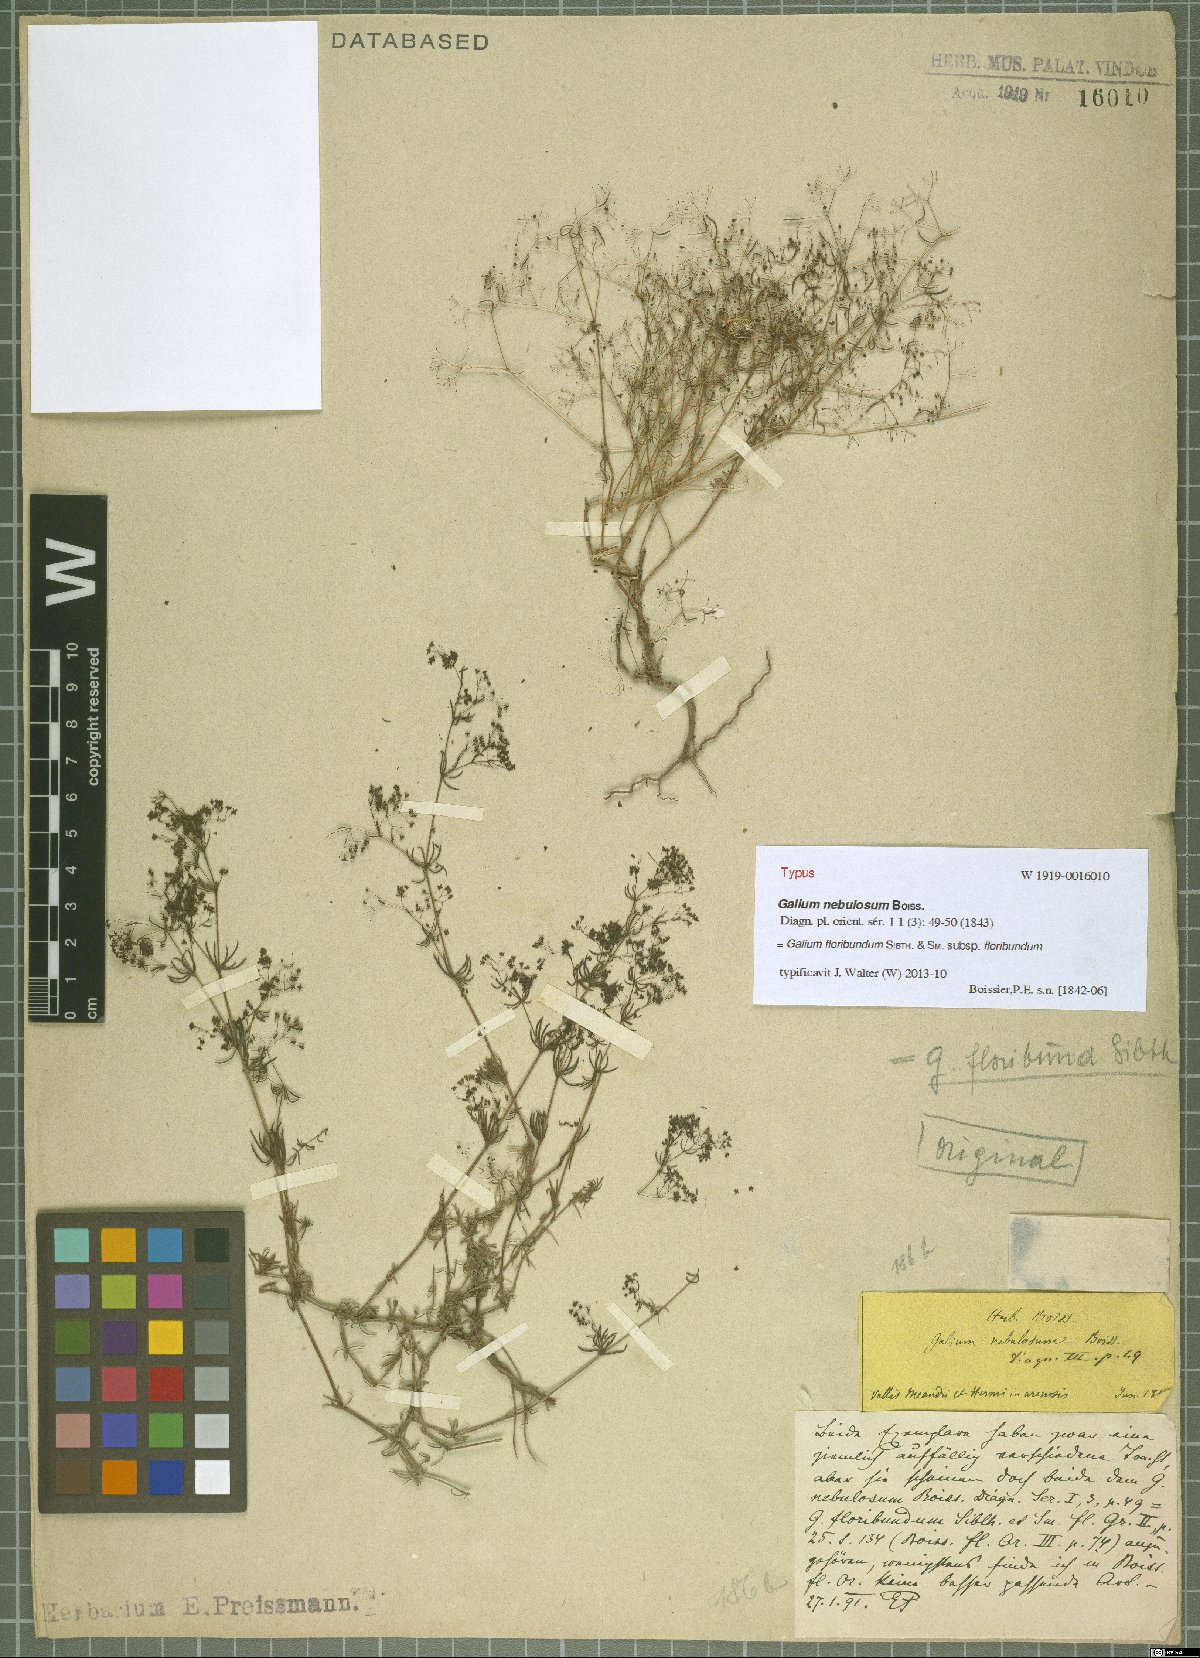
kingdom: Plantae
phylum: Tracheophyta
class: Magnoliopsida
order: Gentianales
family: Rubiaceae
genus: Galium
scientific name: Galium floribundum
